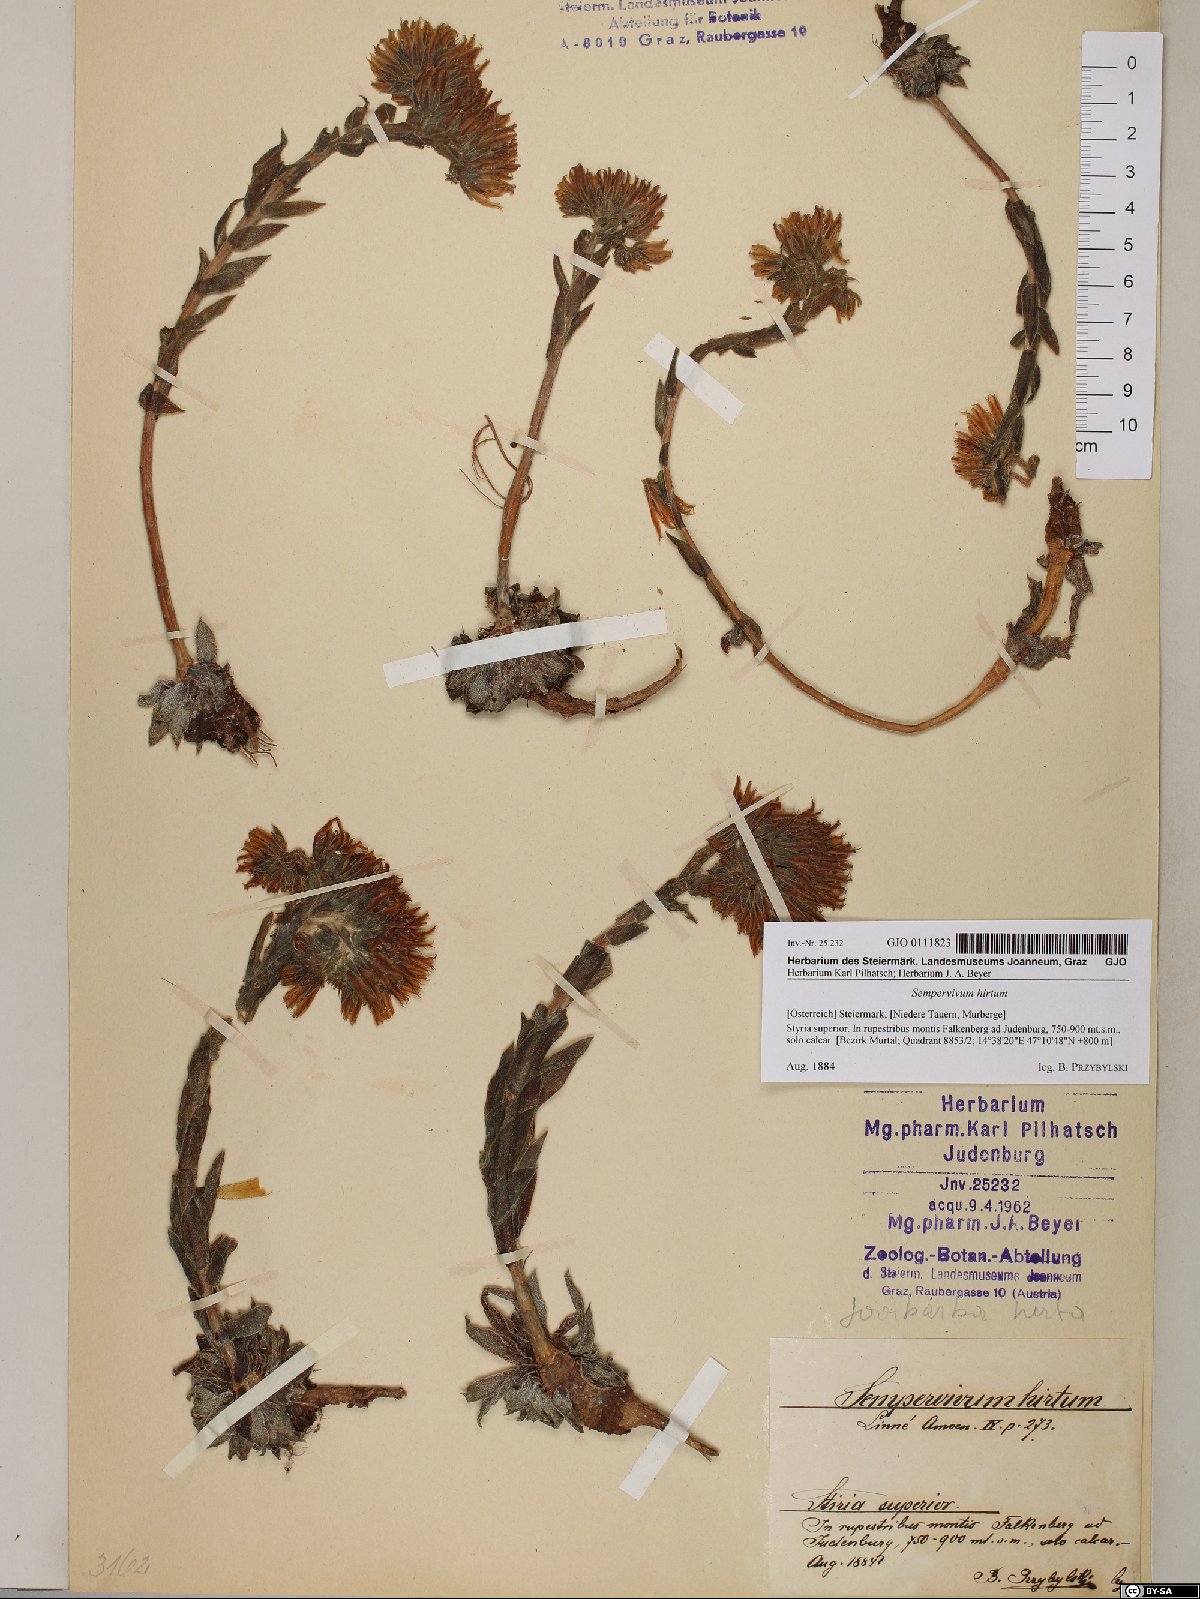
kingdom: Plantae
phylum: Tracheophyta
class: Magnoliopsida
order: Saxifragales
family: Crassulaceae
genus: Sempervivum
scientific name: Sempervivum globiferum
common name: Rolling hen-and-chicks
